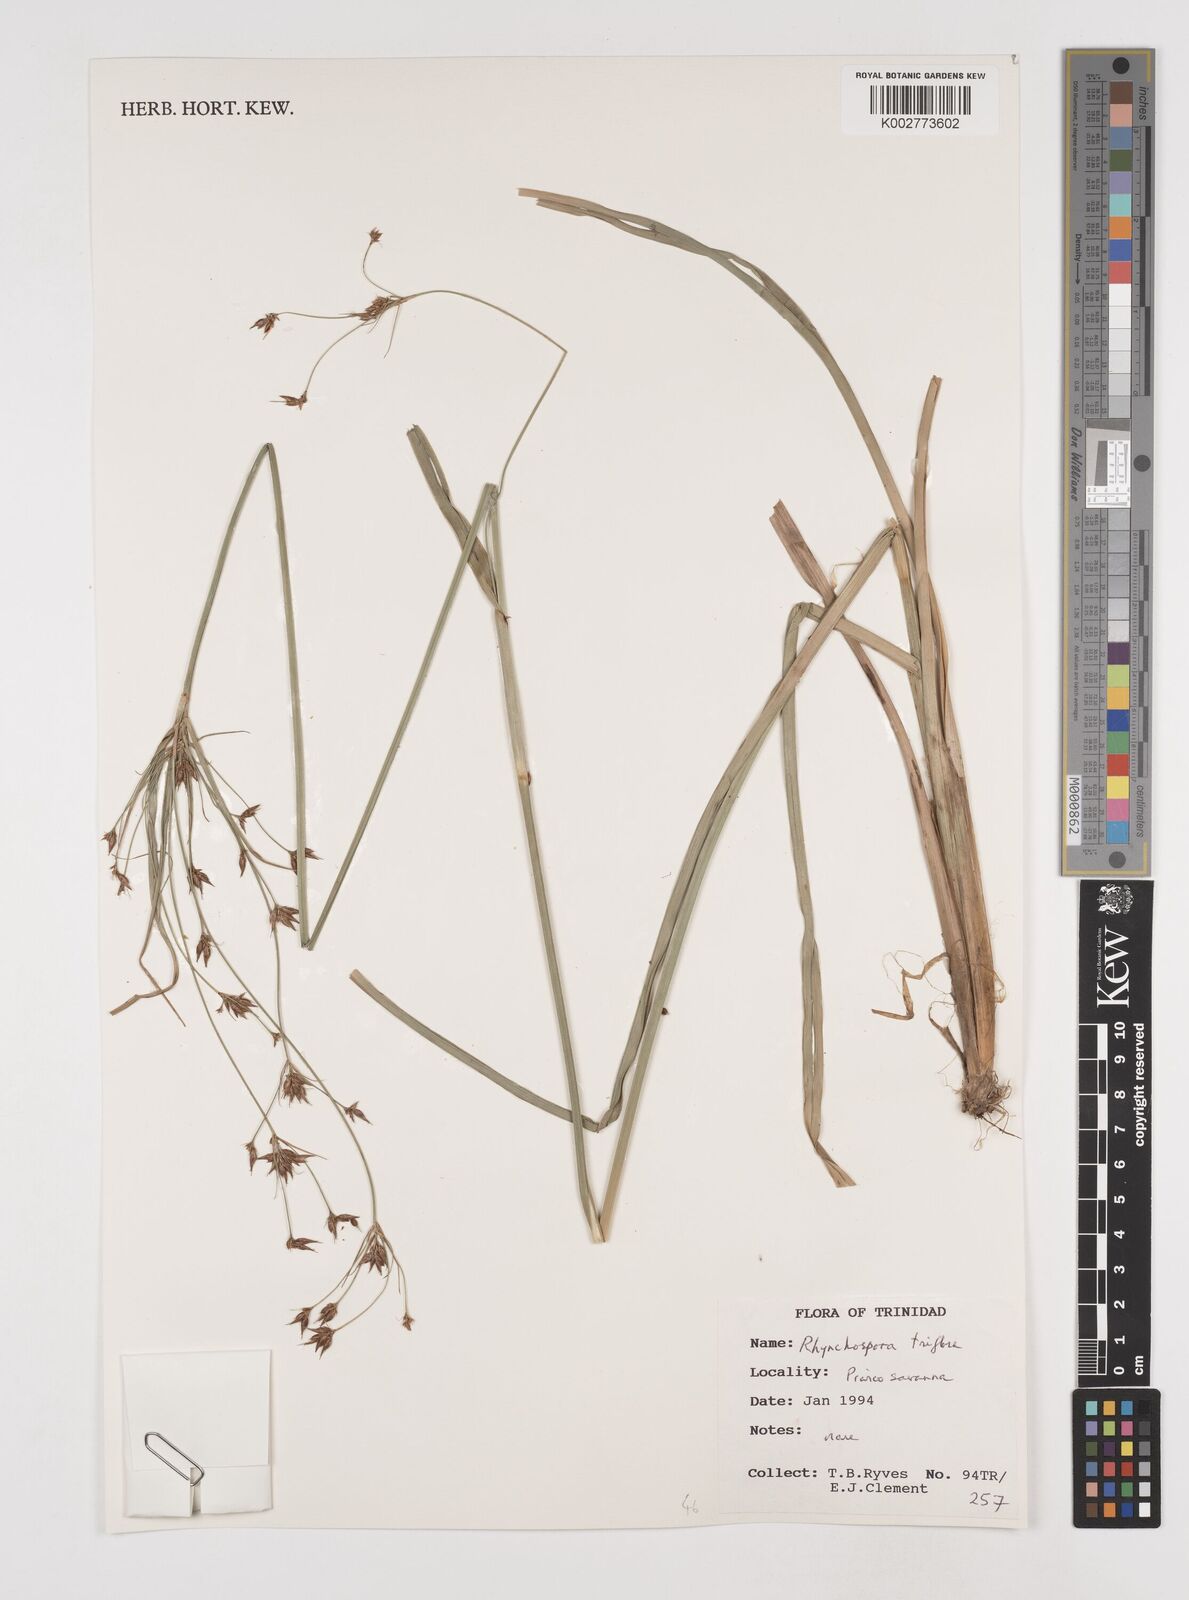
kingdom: Plantae
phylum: Tracheophyta
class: Liliopsida
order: Poales
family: Cyperaceae
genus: Rhynchospora
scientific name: Rhynchospora triflora
